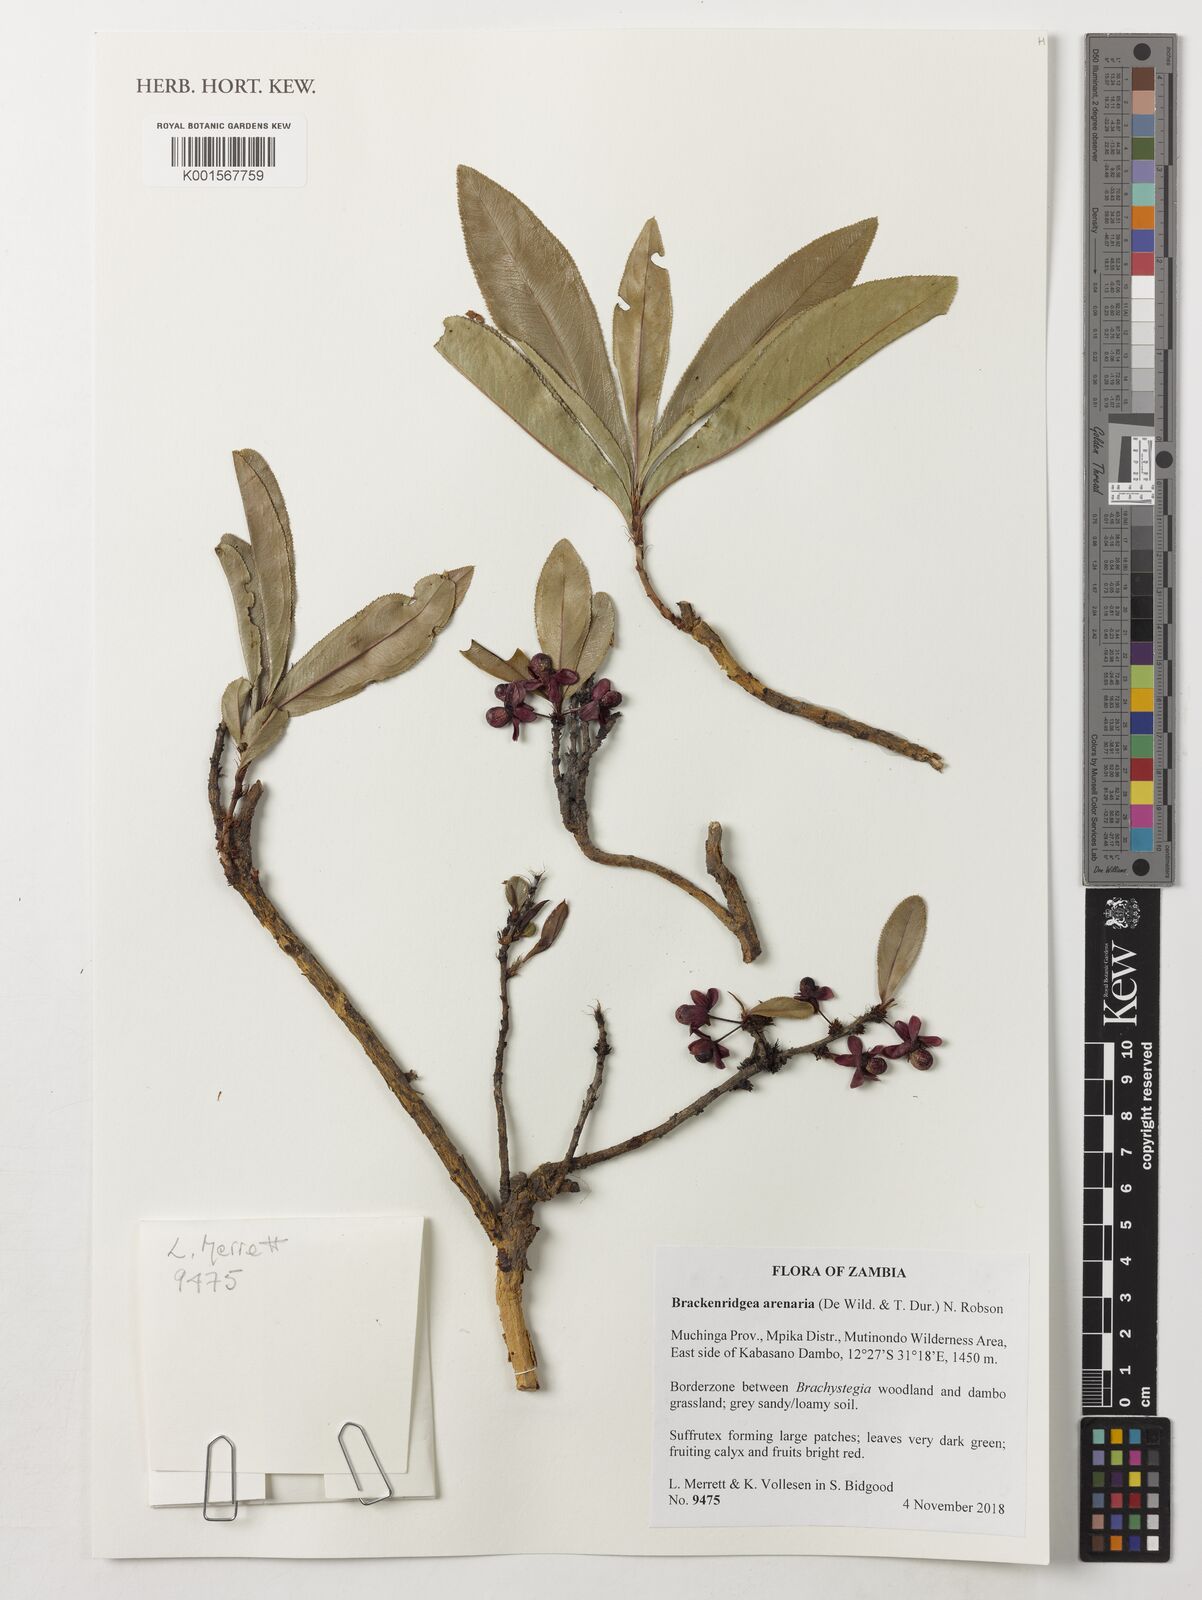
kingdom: Plantae
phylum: Tracheophyta
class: Magnoliopsida
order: Malpighiales
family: Ochnaceae
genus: Ochna
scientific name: Ochna arenaria
